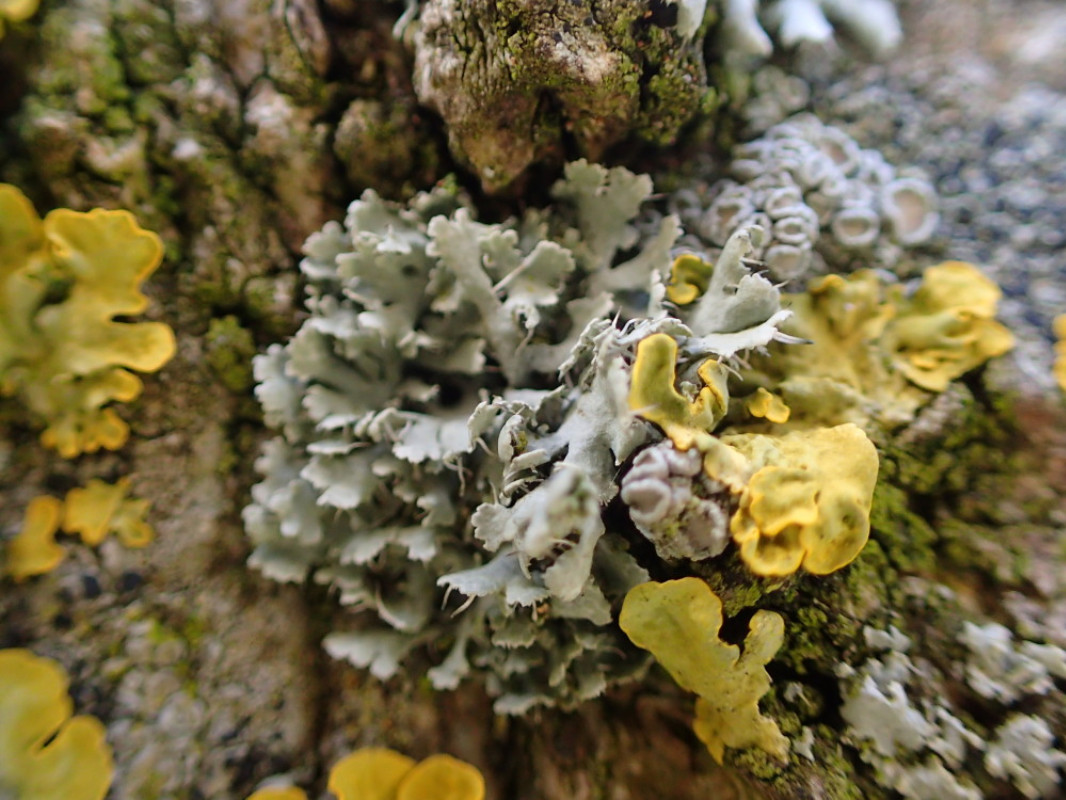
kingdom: Fungi
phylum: Ascomycota
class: Lecanoromycetes
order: Caliciales
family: Physciaceae
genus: Physcia
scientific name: Physcia tenella
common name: spæd rosetlav
